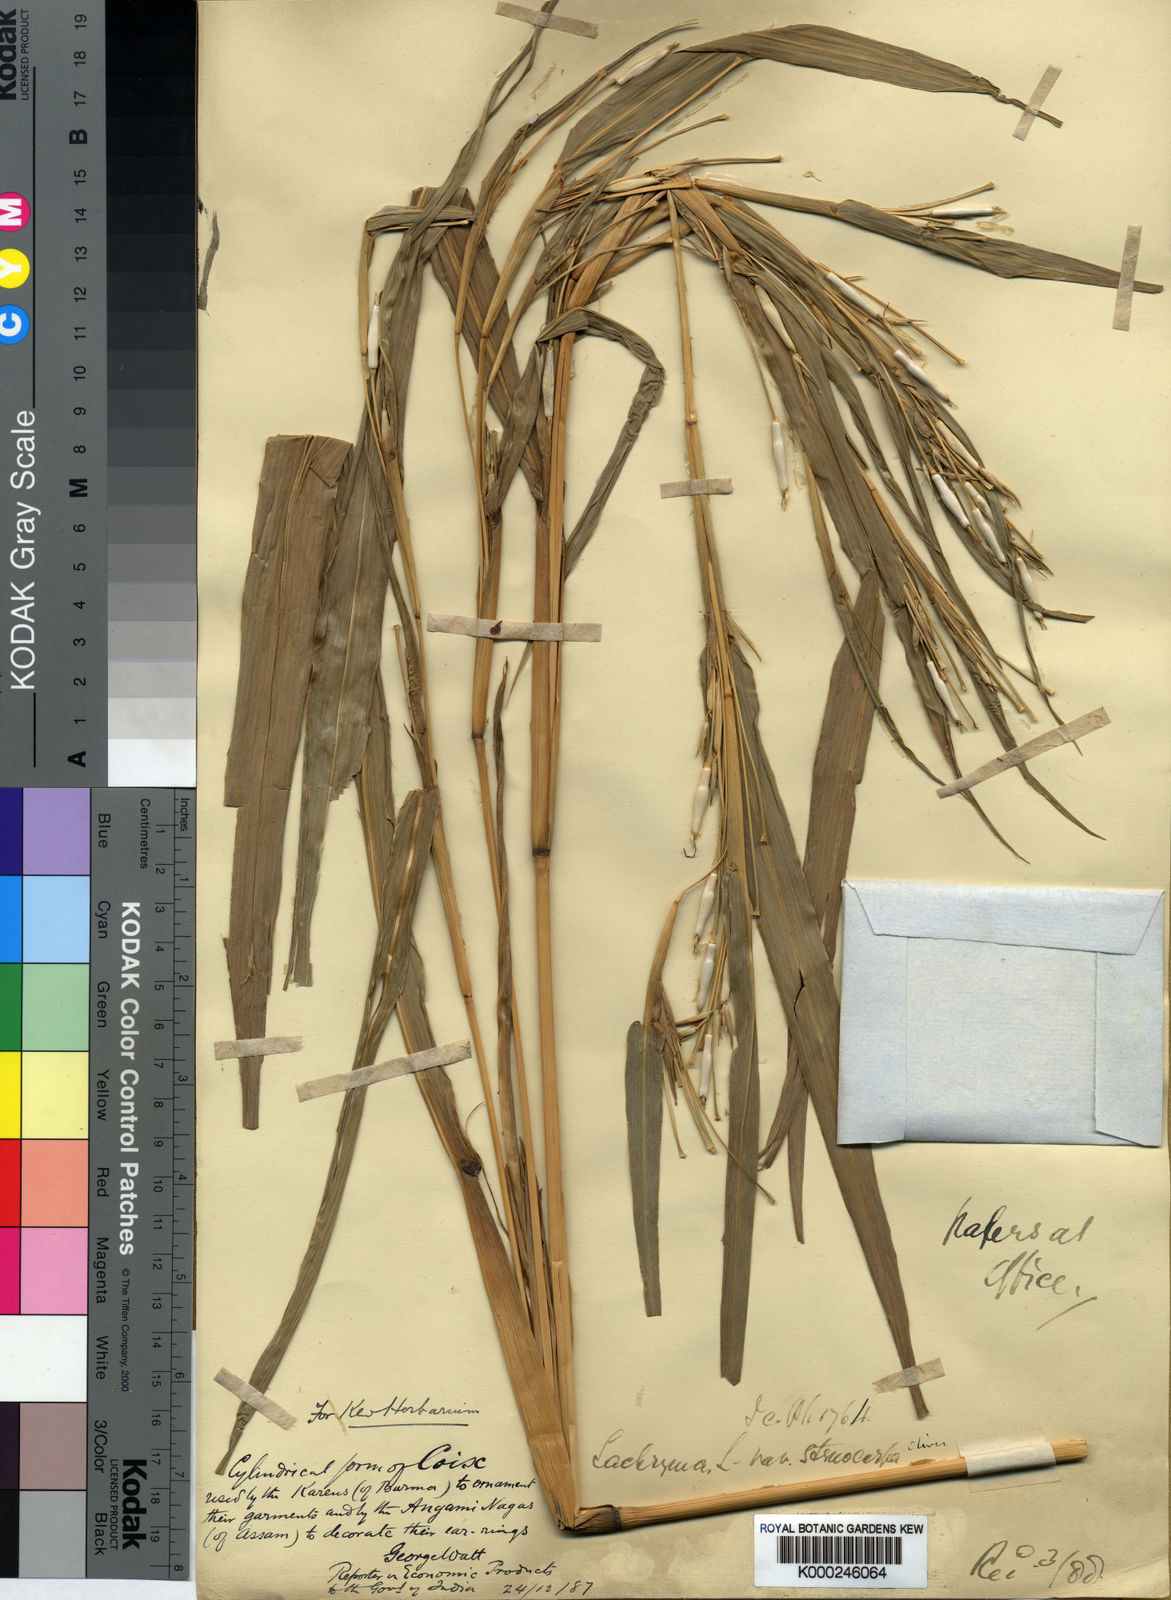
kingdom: Plantae
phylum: Tracheophyta
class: Liliopsida
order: Poales
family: Poaceae
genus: Coix
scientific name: Coix lacryma-jobi
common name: Job's tears
